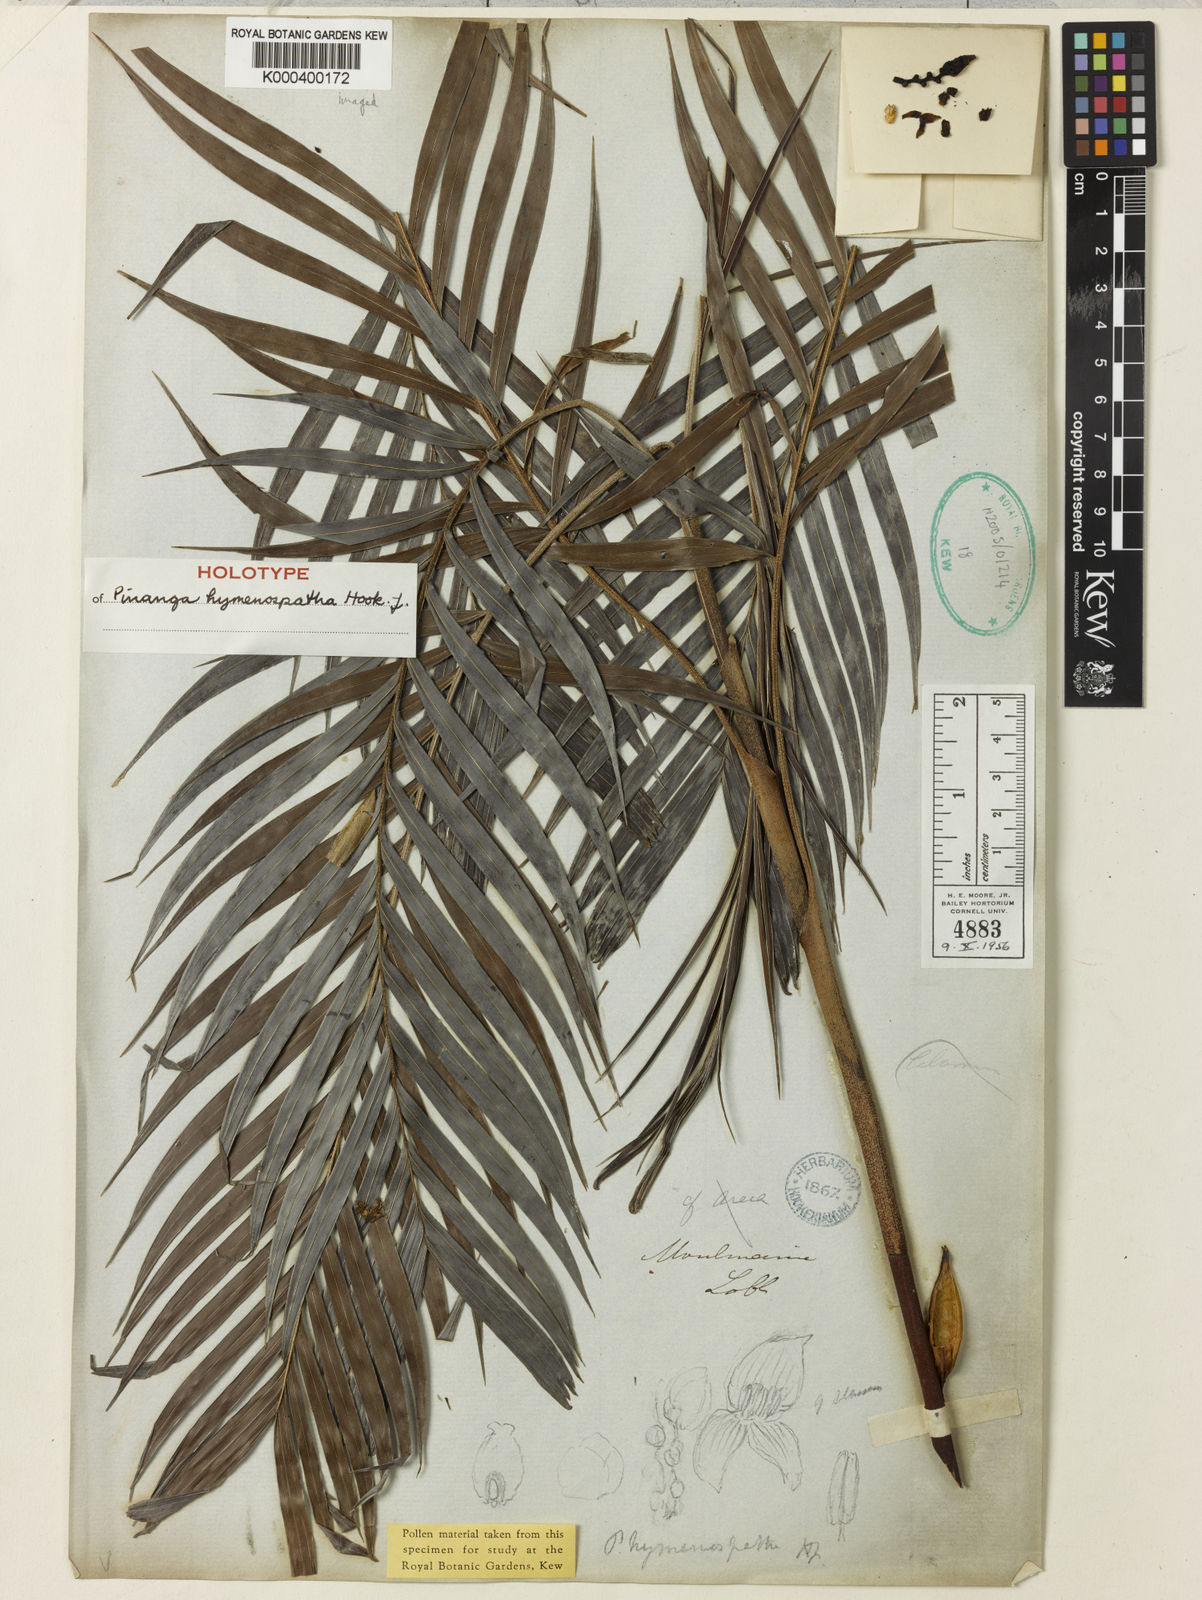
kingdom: Plantae
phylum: Tracheophyta
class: Liliopsida
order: Arecales
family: Arecaceae
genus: Pinanga
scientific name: Pinanga hymenospatha
